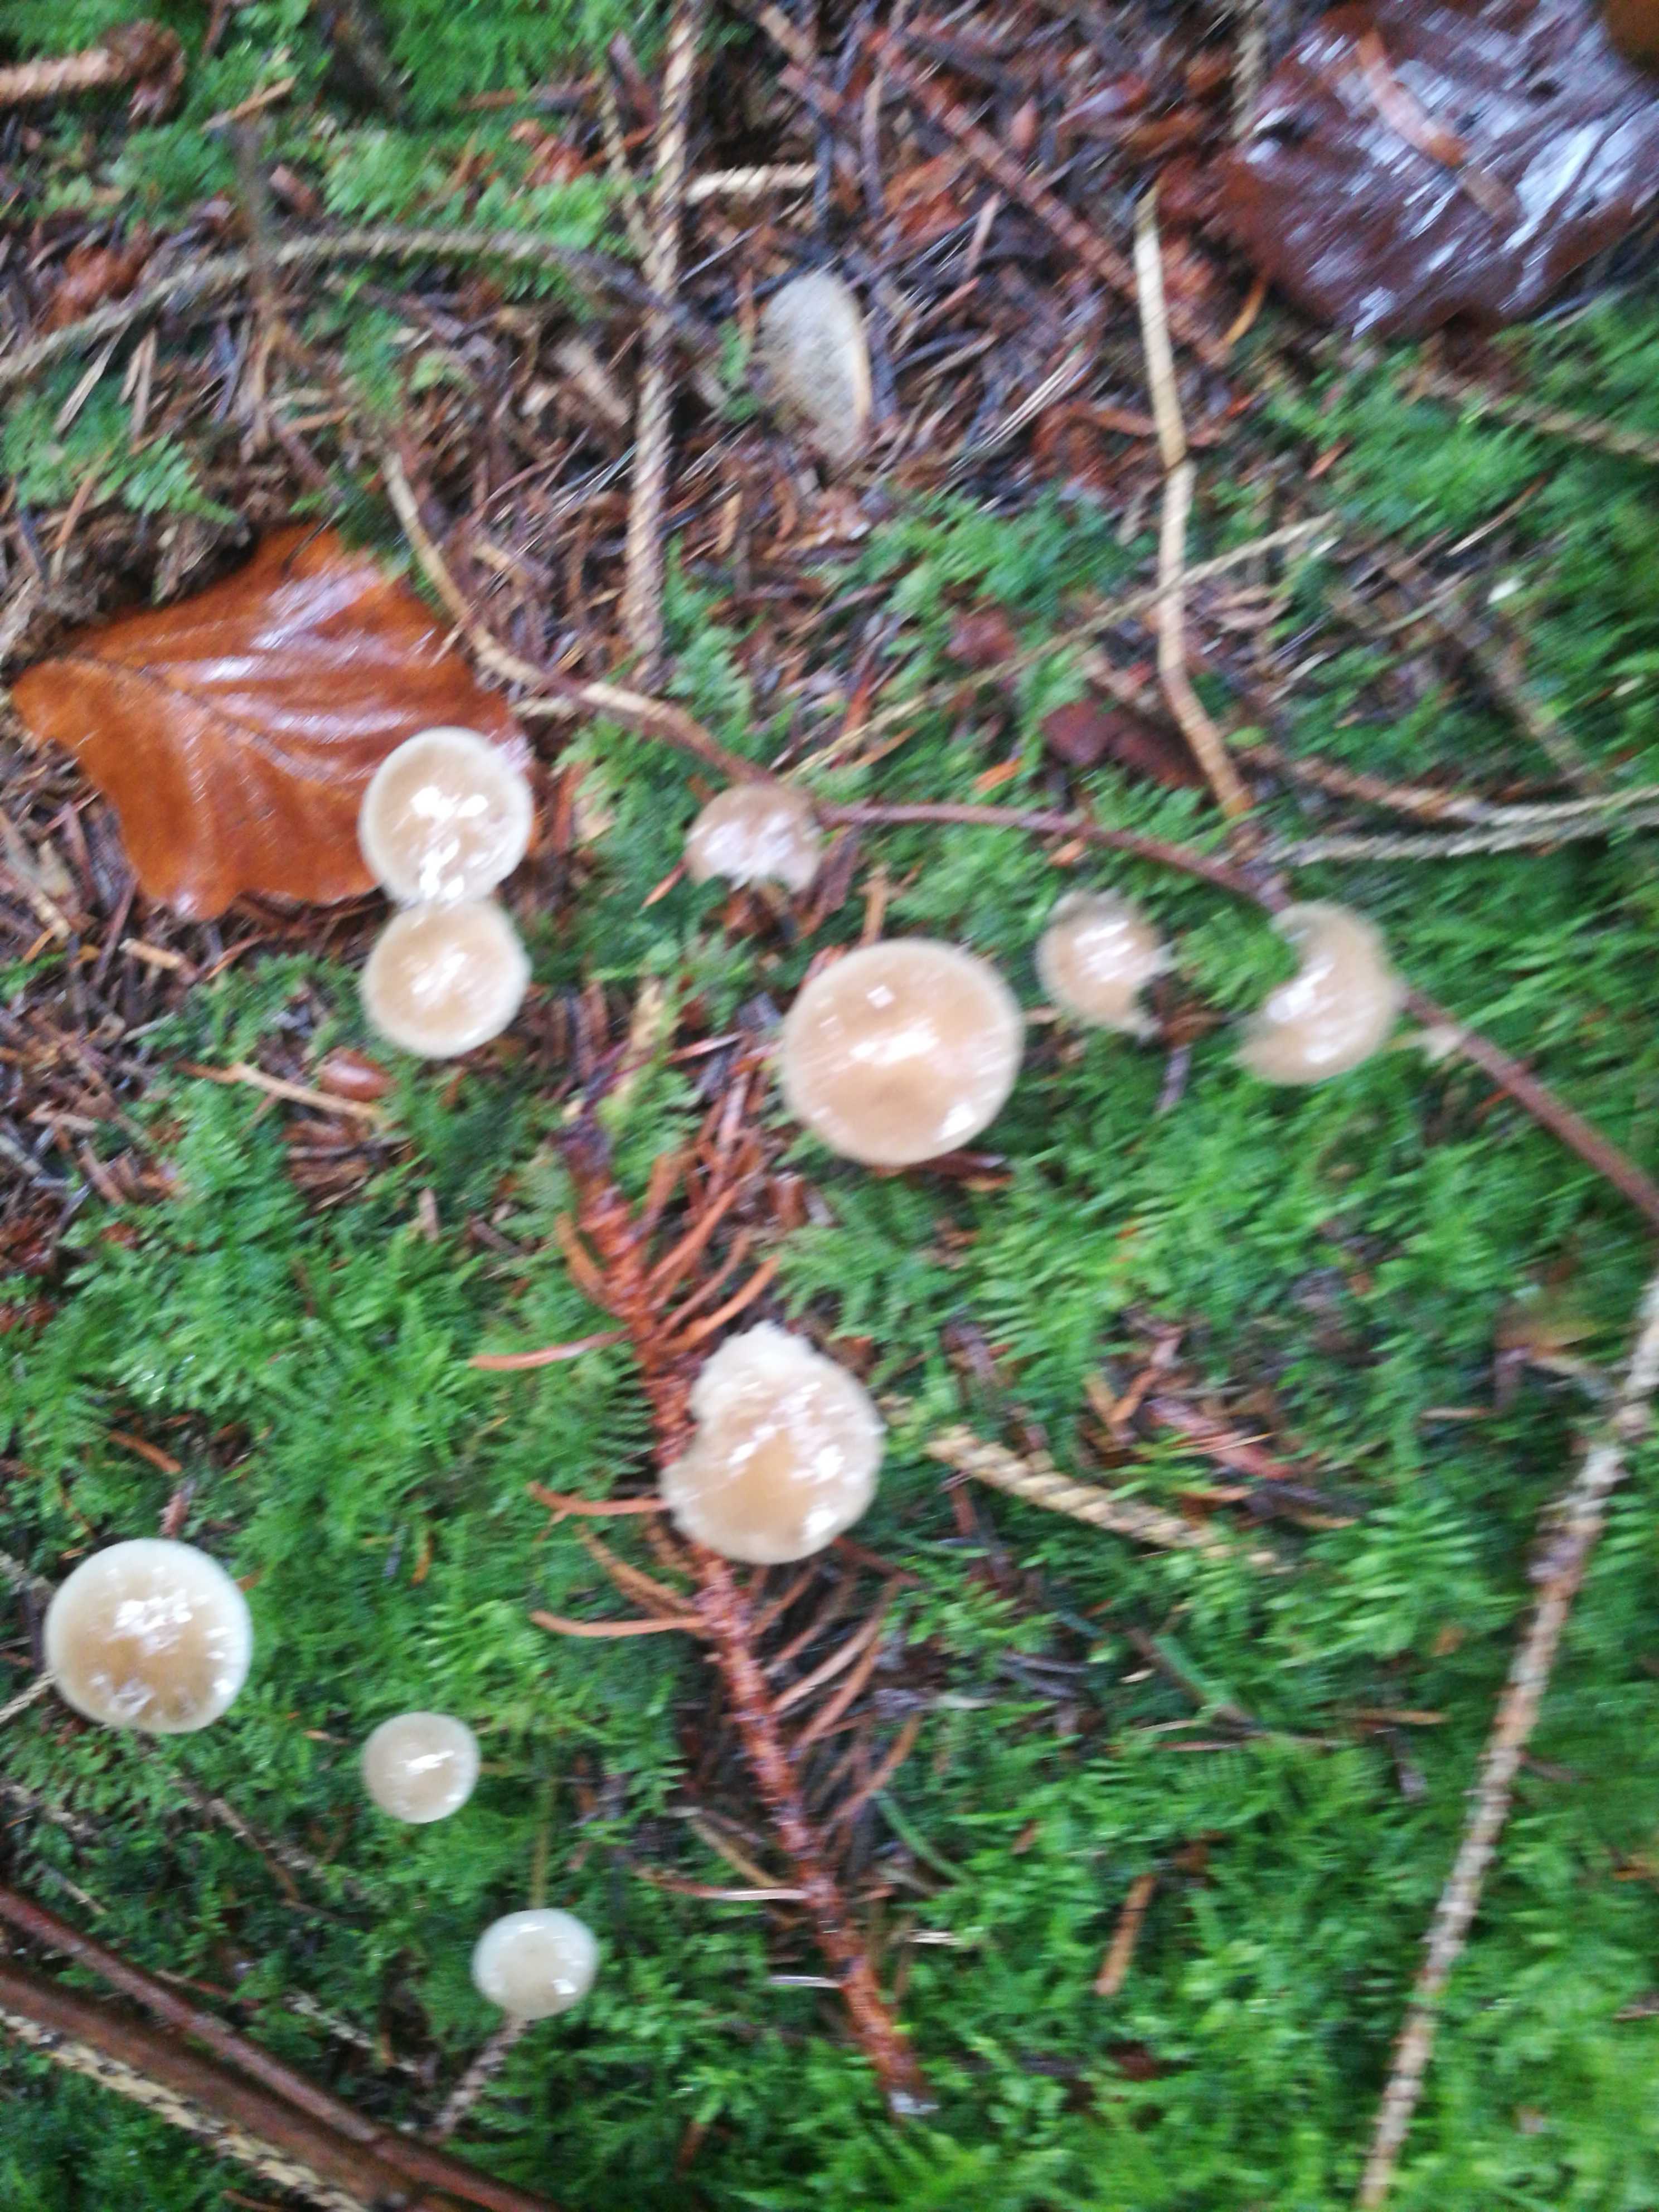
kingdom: Fungi
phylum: Basidiomycota
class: Agaricomycetes
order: Agaricales
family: Physalacriaceae
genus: Strobilurus
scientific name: Strobilurus esculentus
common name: gran-koglehat
